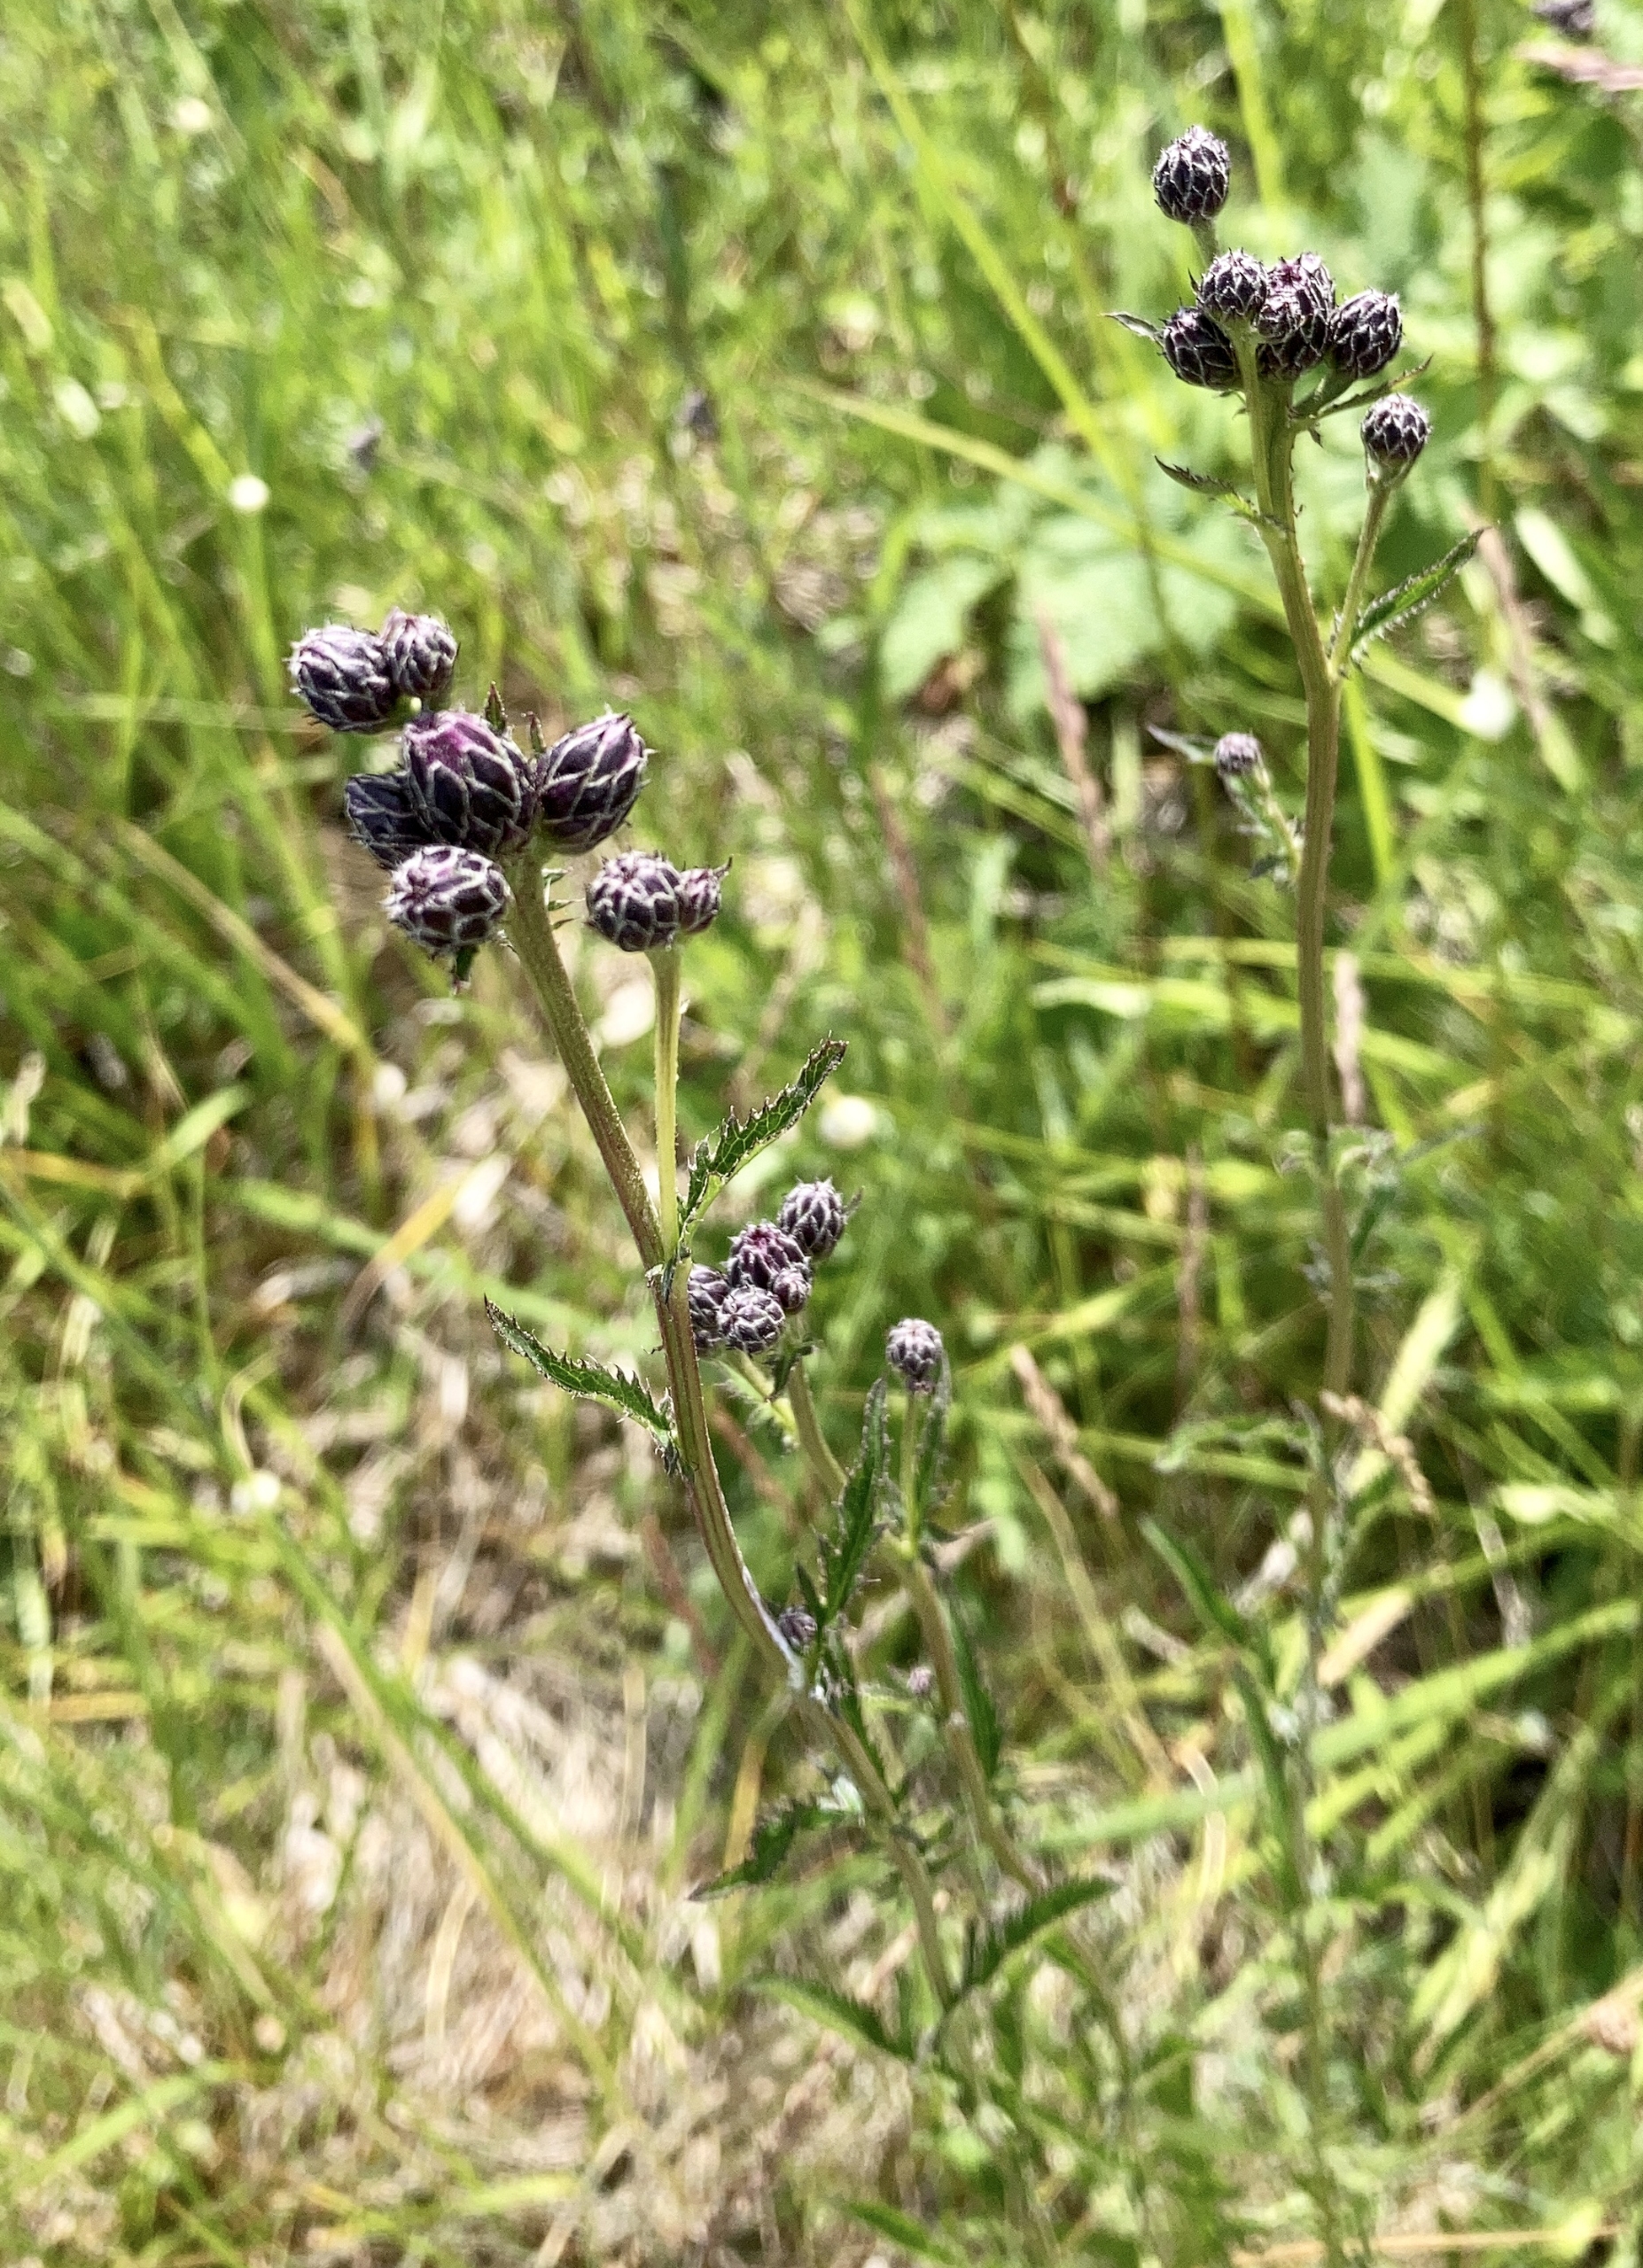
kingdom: Plantae
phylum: Tracheophyta
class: Magnoliopsida
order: Asterales
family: Asteraceae
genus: Serratula
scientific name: Serratula tinctoria
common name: Eng-skær
